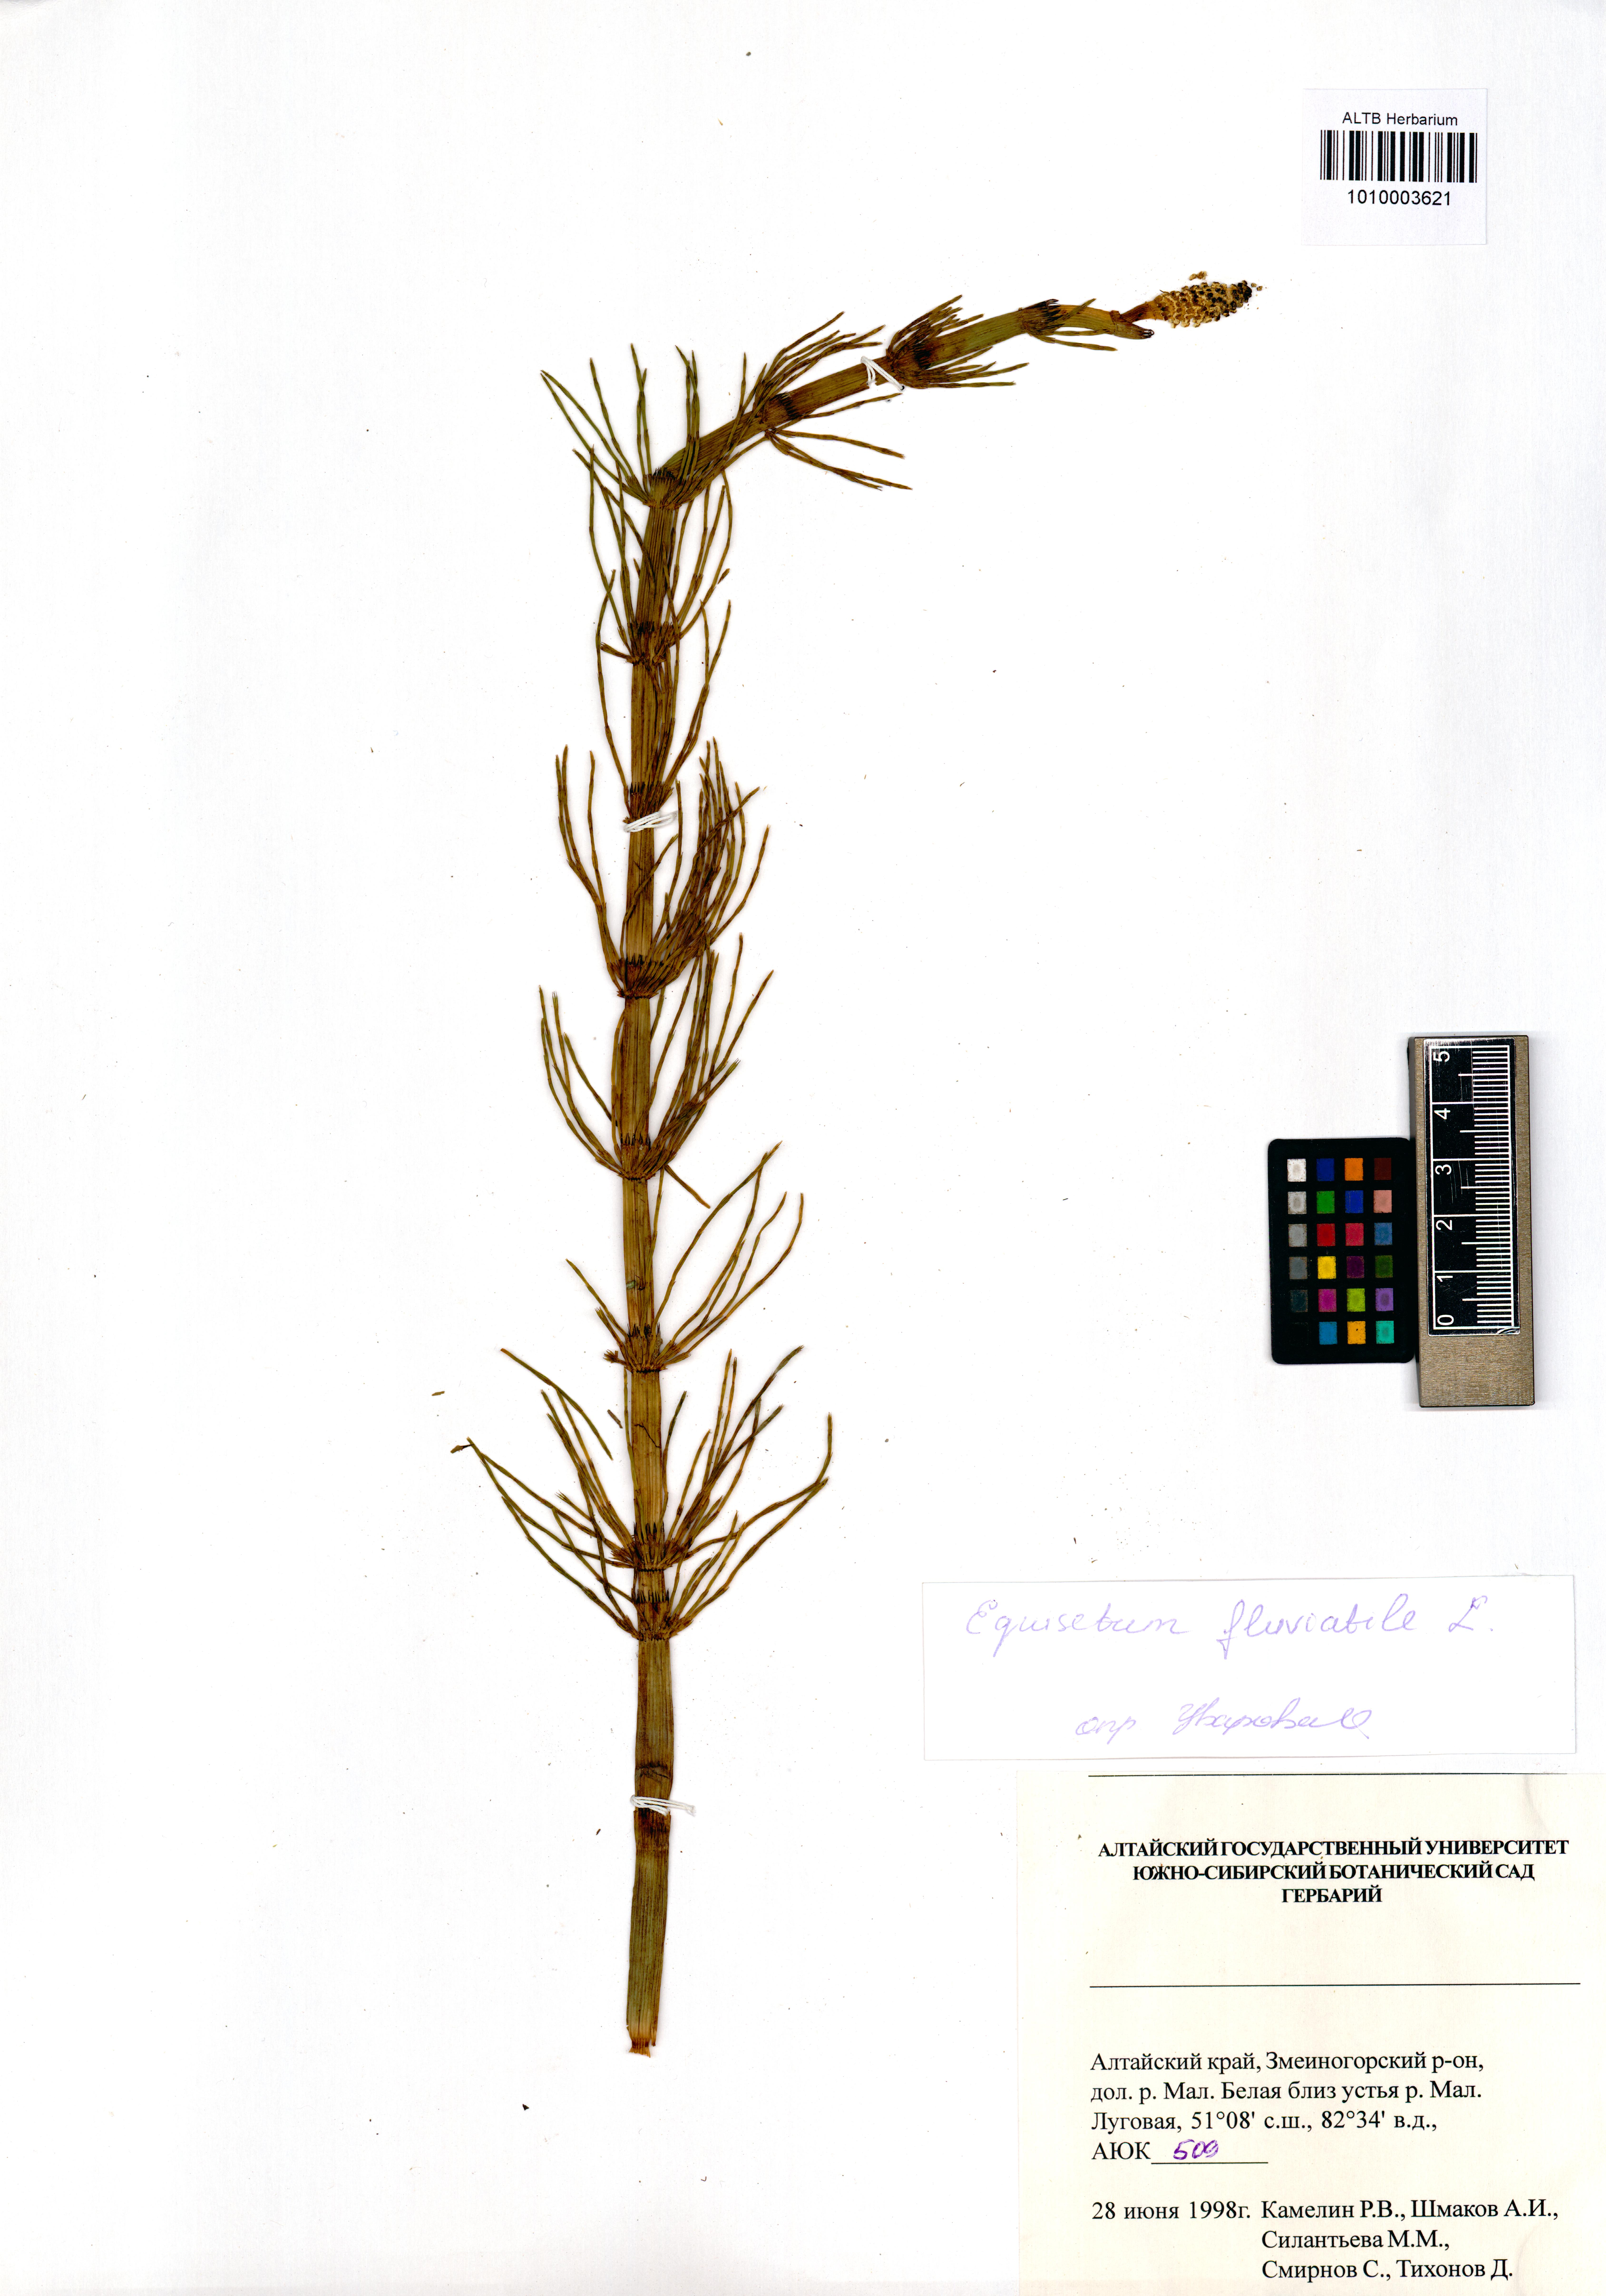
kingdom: Plantae
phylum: Tracheophyta
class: Polypodiopsida
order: Equisetales
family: Equisetaceae
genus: Equisetum
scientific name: Equisetum fluviatile
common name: Water horsetail
